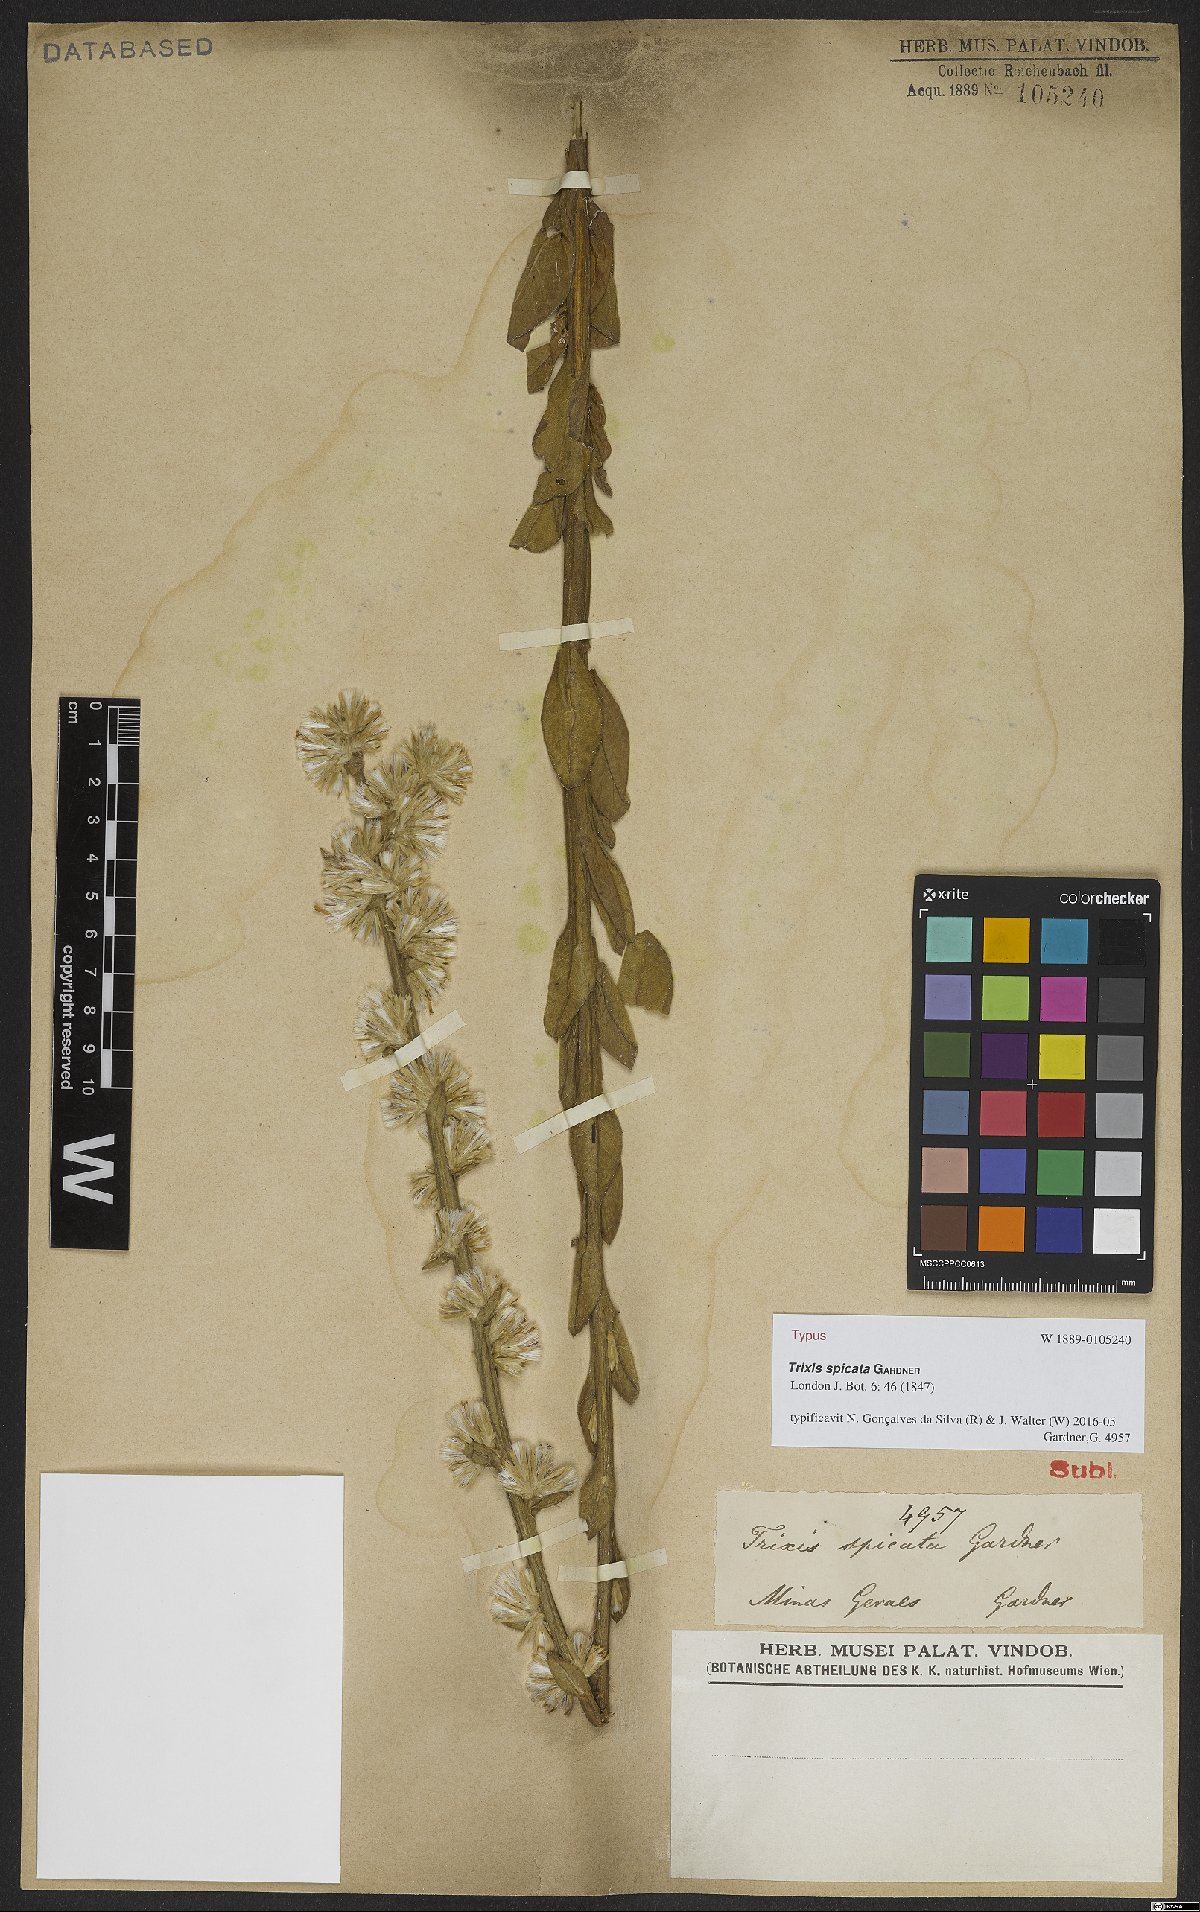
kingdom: Plantae
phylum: Tracheophyta
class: Magnoliopsida
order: Asterales
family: Asteraceae
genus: Trixis
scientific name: Trixis spicata
